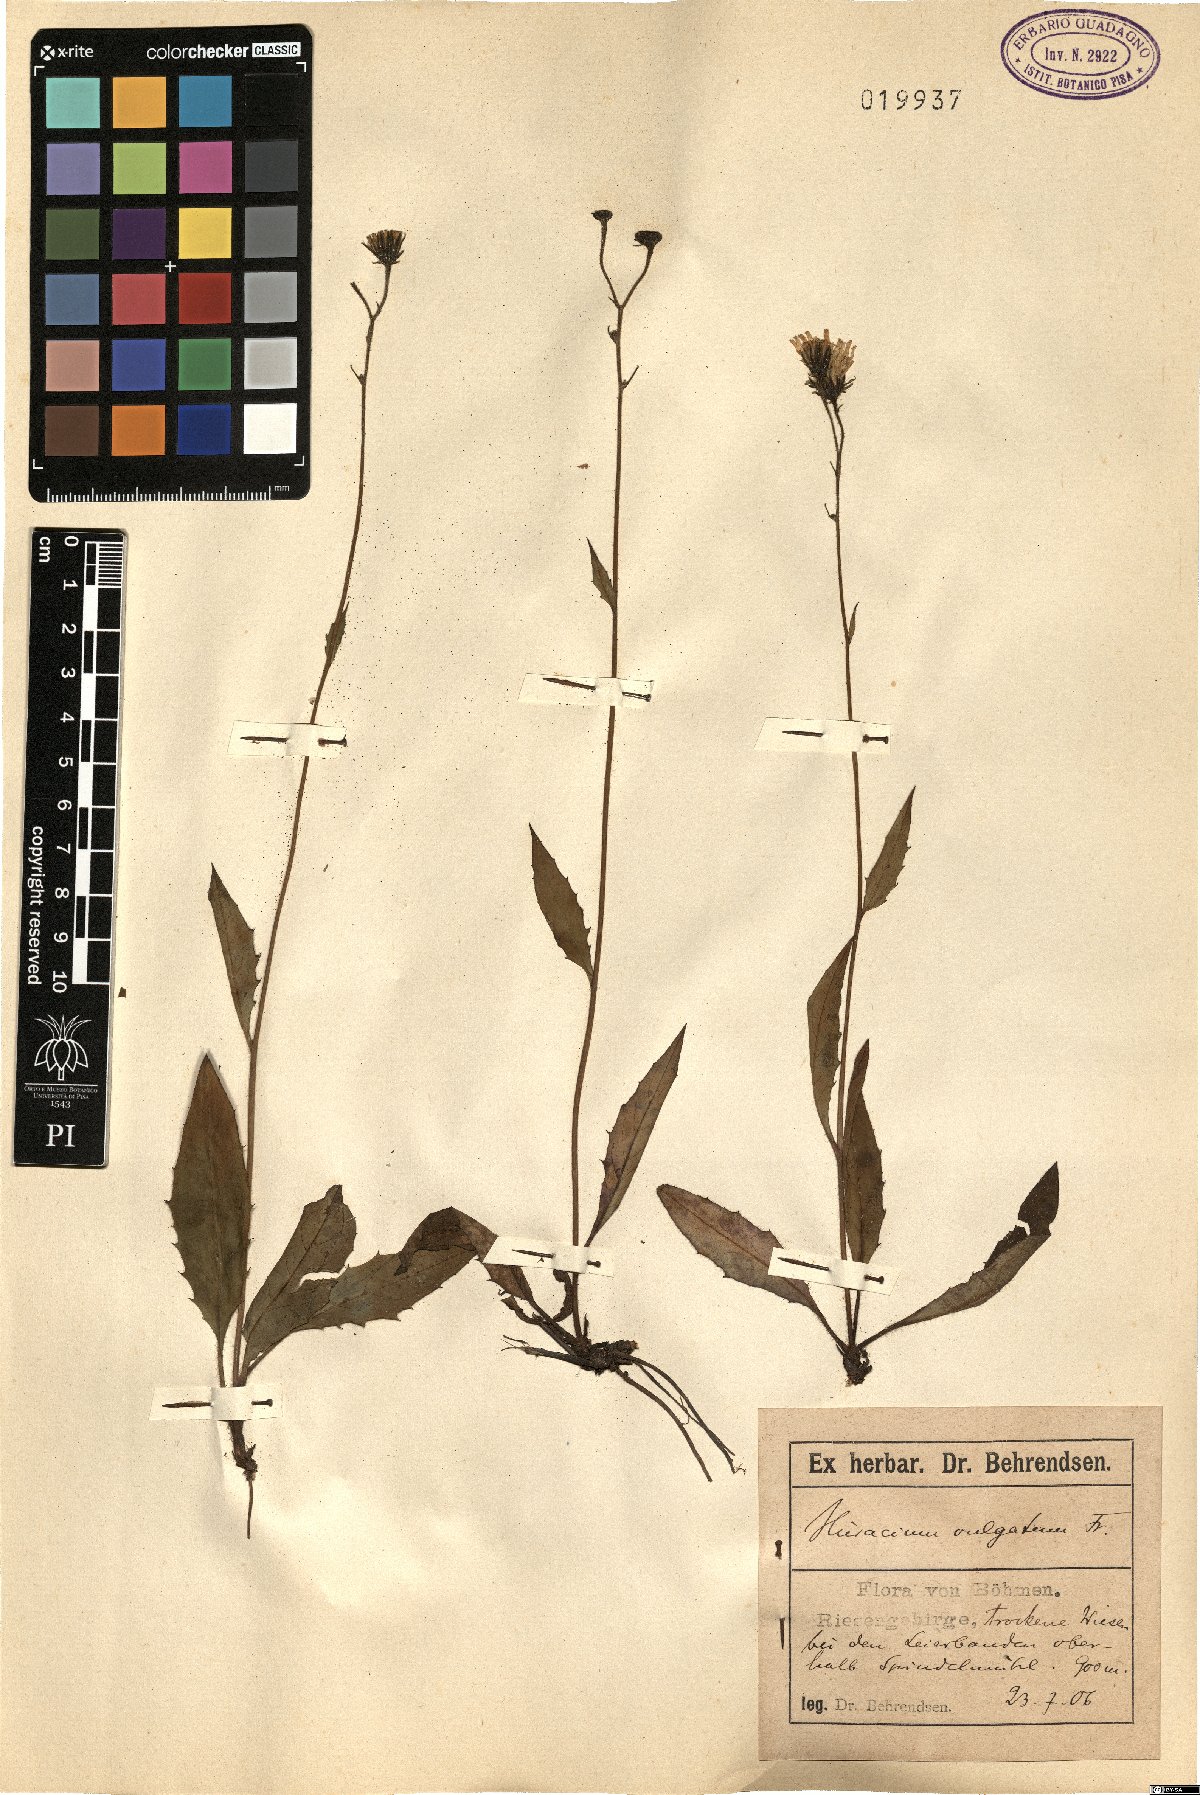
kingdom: Plantae
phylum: Tracheophyta
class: Magnoliopsida
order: Asterales
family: Asteraceae
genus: Hieracium
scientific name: Hieracium lachenalii
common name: Common hawkweed
